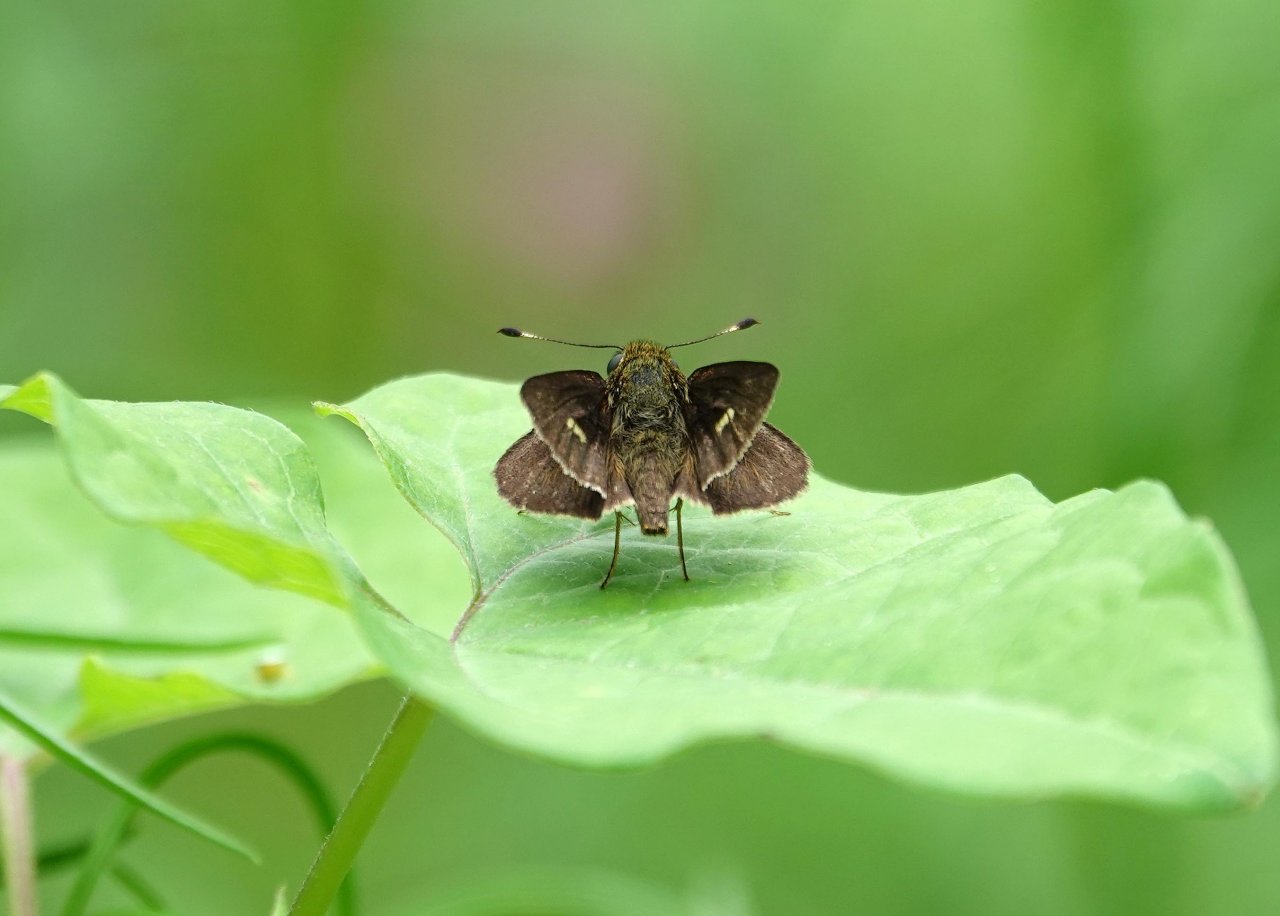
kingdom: Animalia
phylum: Arthropoda
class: Insecta
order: Lepidoptera
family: Hesperiidae
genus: Euphyes
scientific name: Euphyes vestris
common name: Dun Skipper
